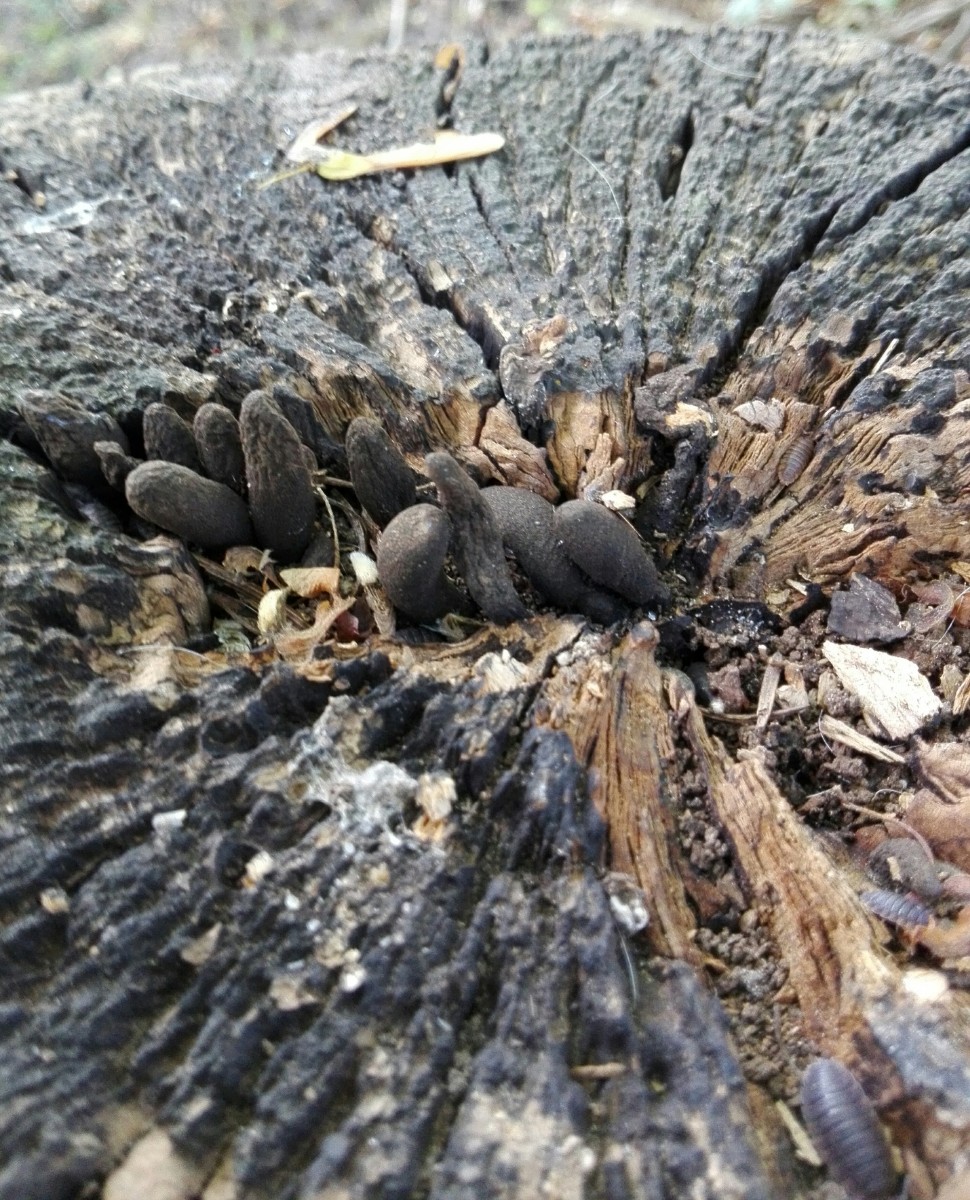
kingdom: Fungi
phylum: Ascomycota
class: Sordariomycetes
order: Xylariales
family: Xylariaceae
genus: Xylaria
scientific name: Xylaria longipes
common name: slank stødsvamp
